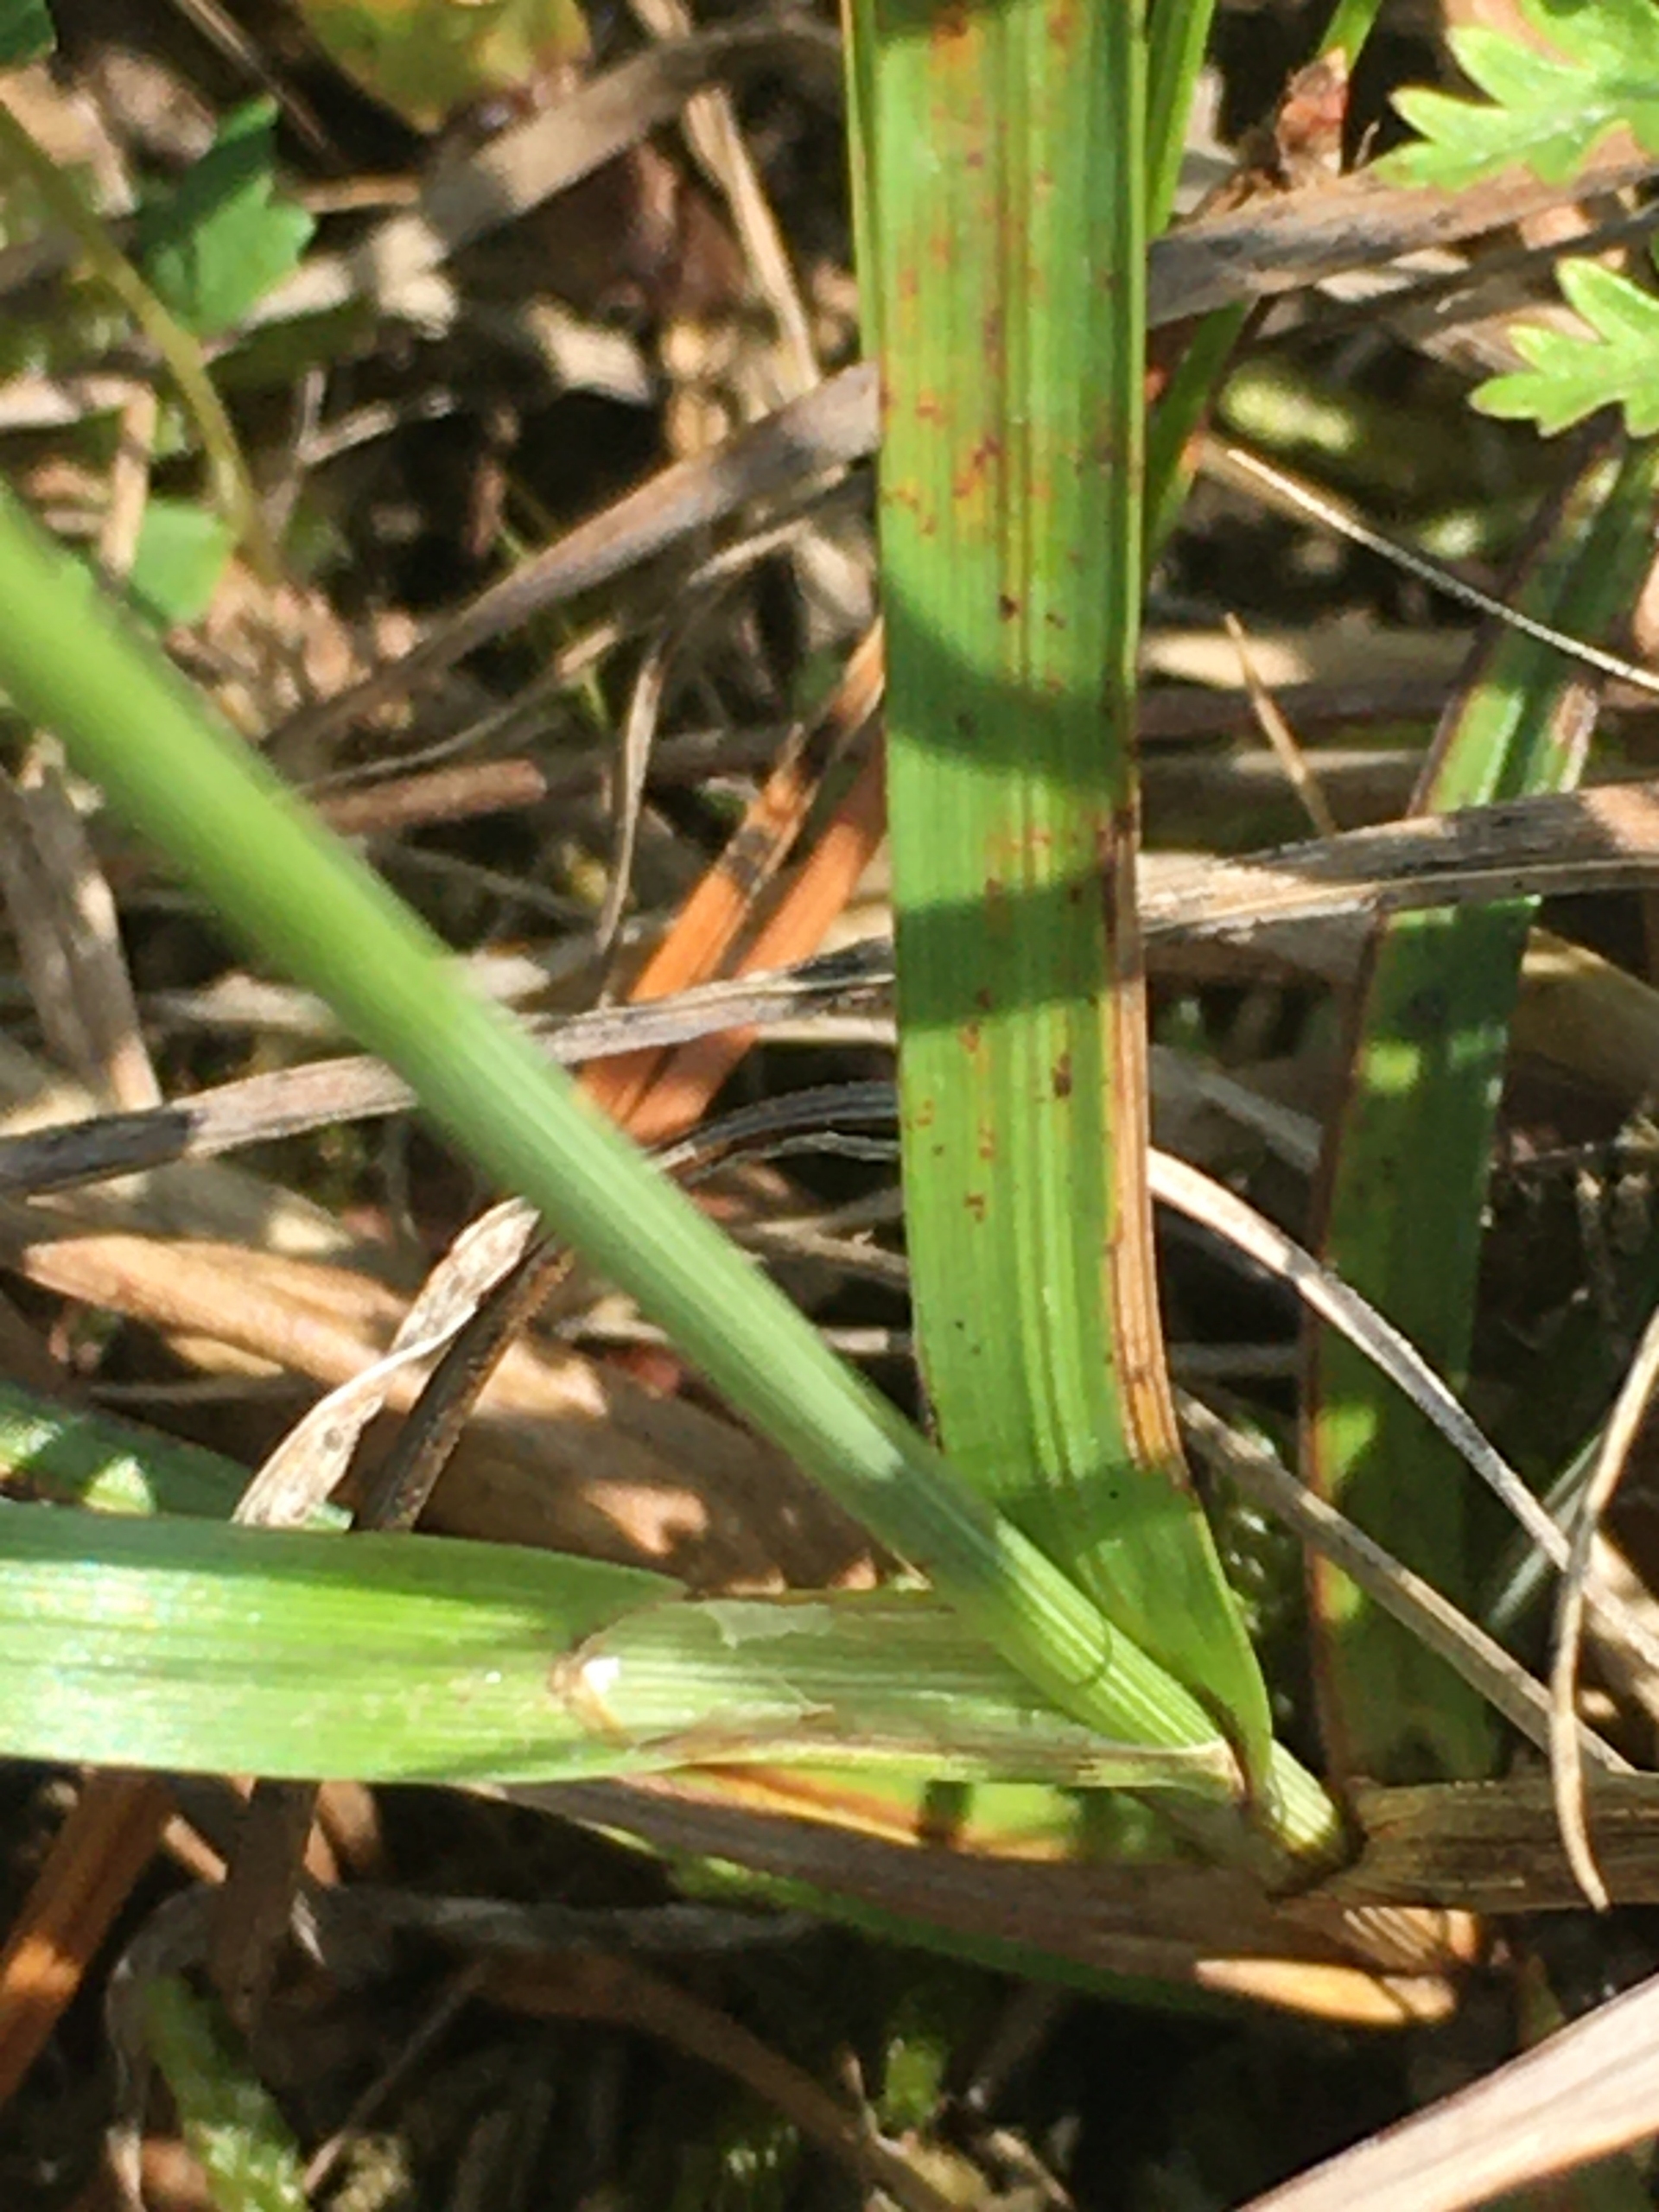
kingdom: Plantae
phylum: Tracheophyta
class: Liliopsida
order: Poales
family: Cyperaceae
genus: Carex
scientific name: Carex flacca
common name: Blågrøn star
